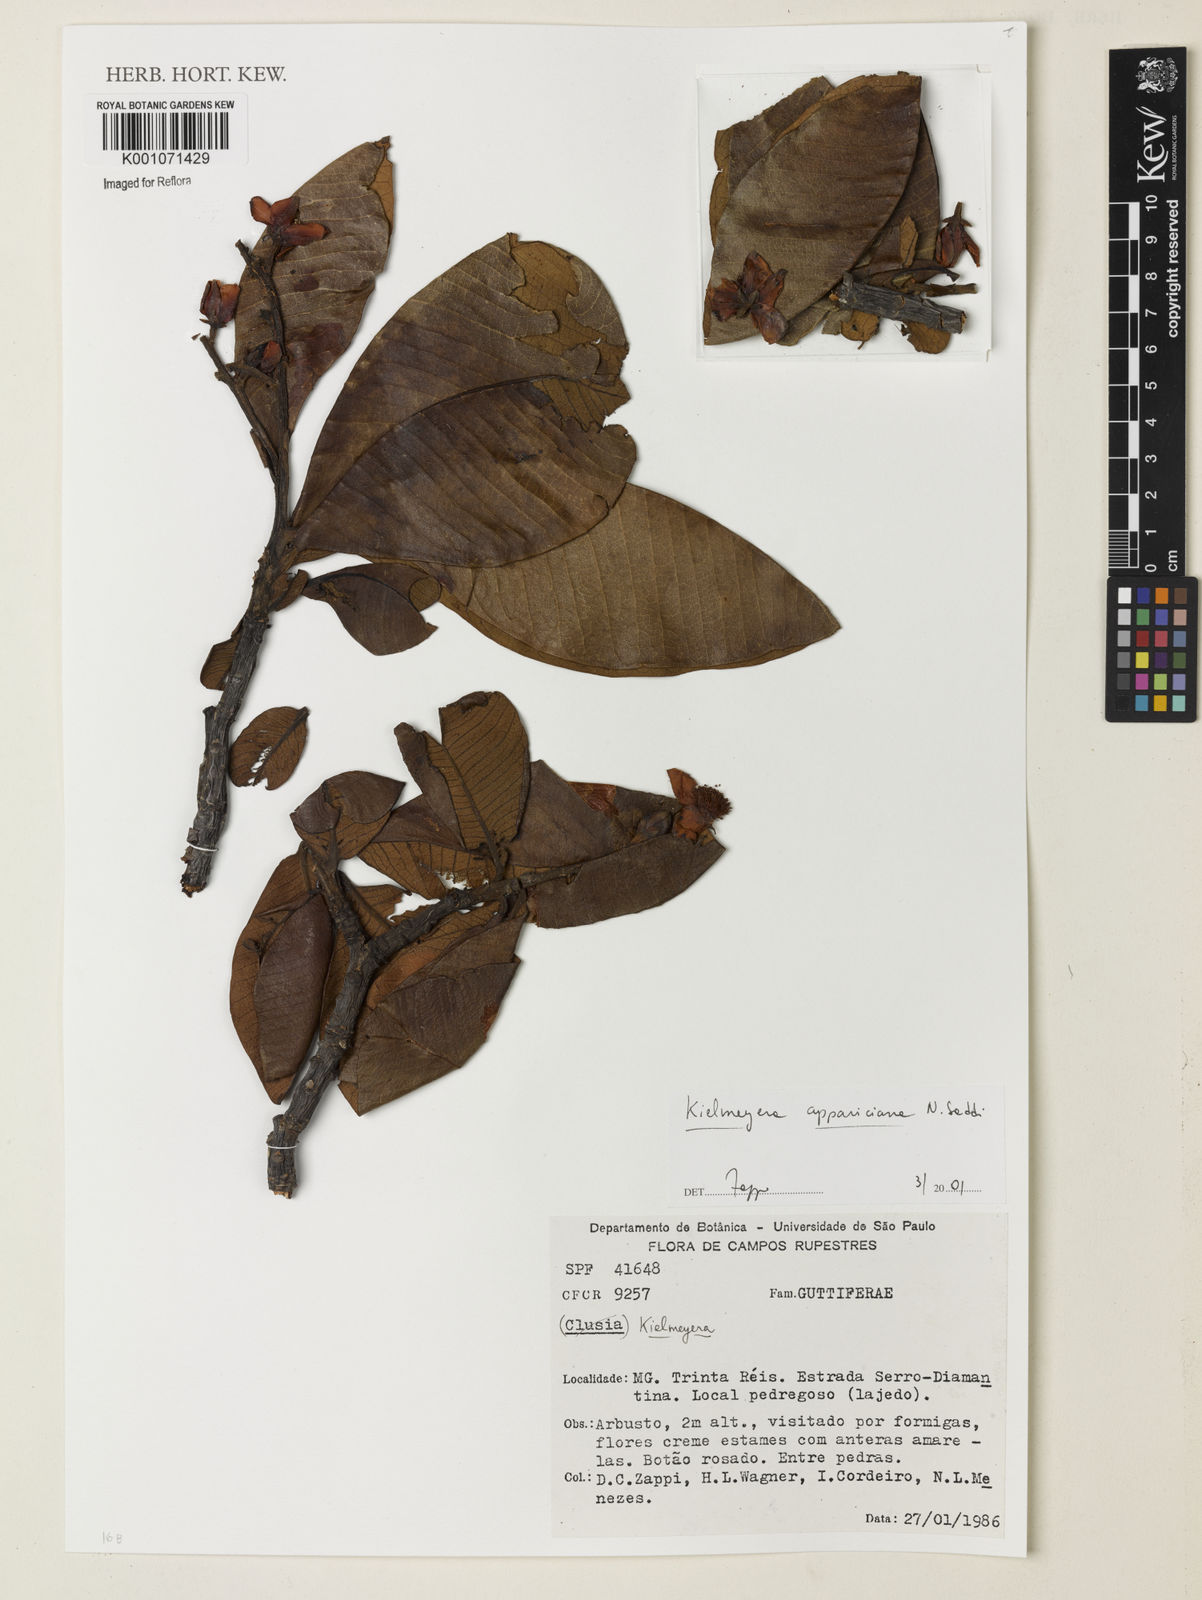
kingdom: Plantae
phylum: Tracheophyta
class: Magnoliopsida
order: Malpighiales
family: Calophyllaceae
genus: Kielmeyera
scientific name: Kielmeyera appariciana
